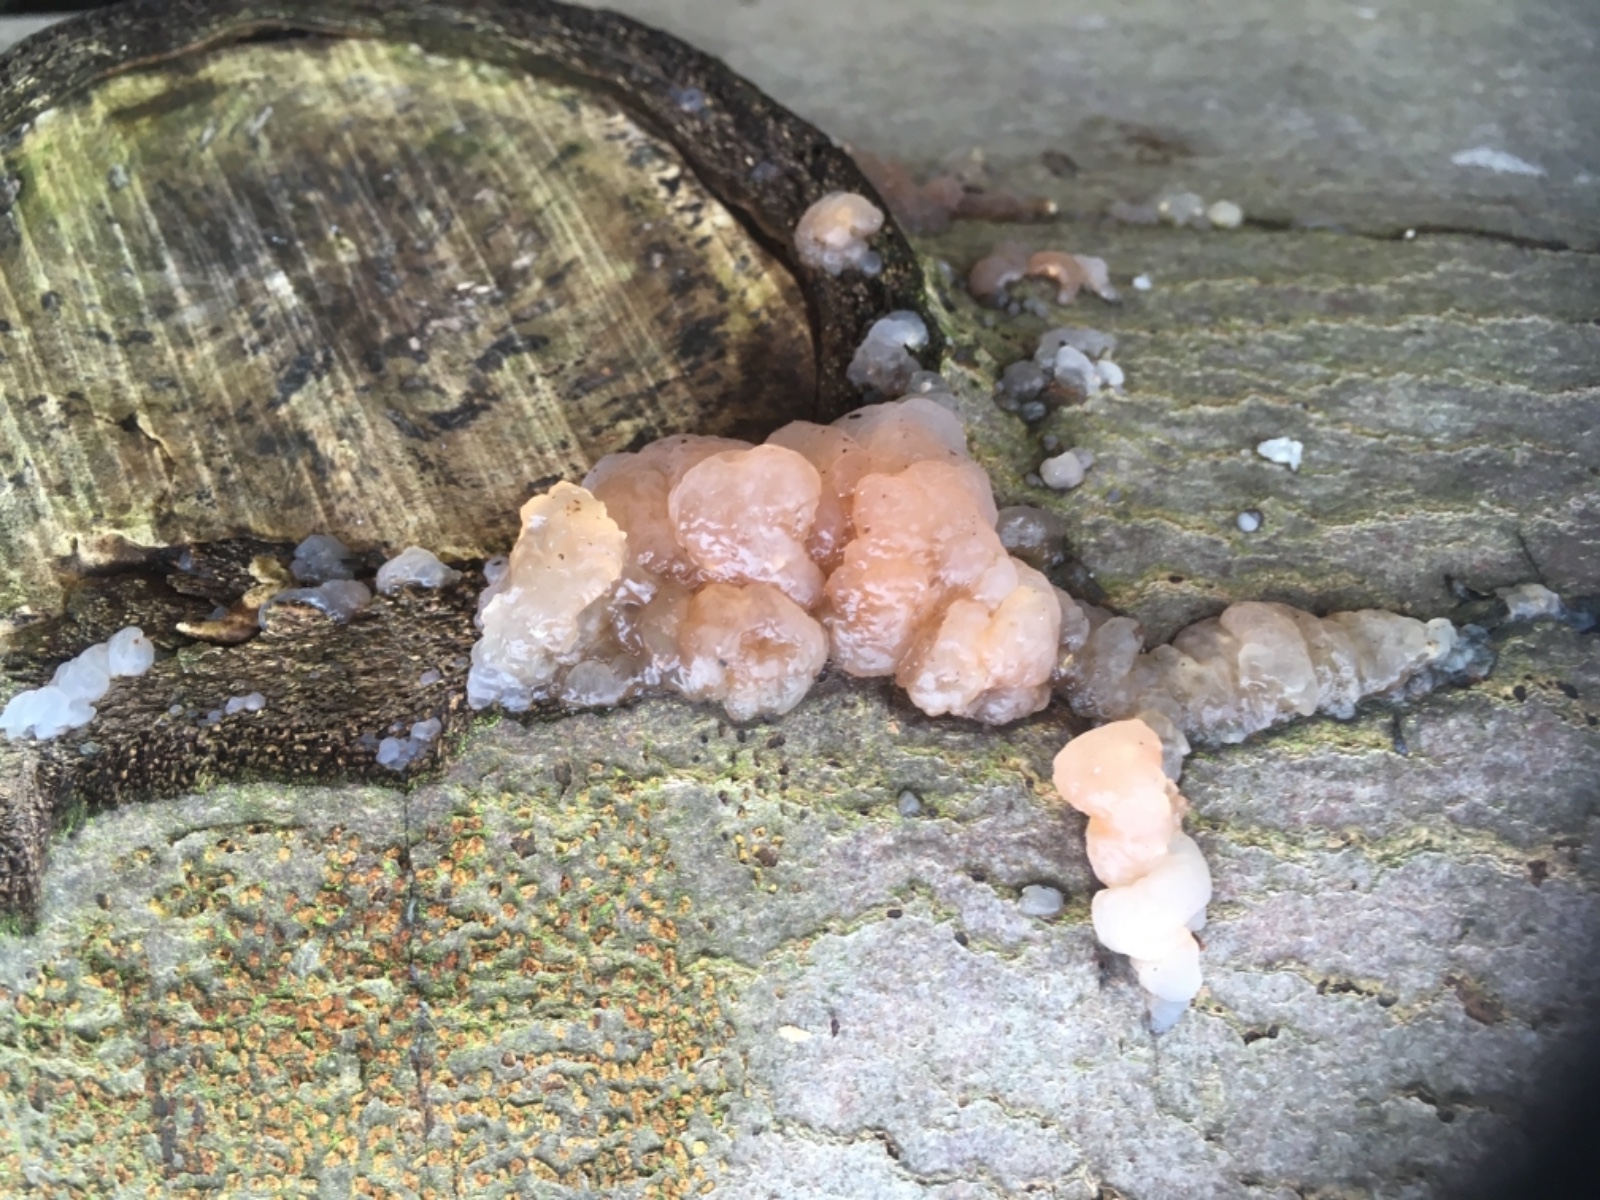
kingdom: Fungi
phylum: Basidiomycota
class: Agaricomycetes
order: Auriculariales
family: Hyaloriaceae
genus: Myxarium
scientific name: Myxarium
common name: bævretop
